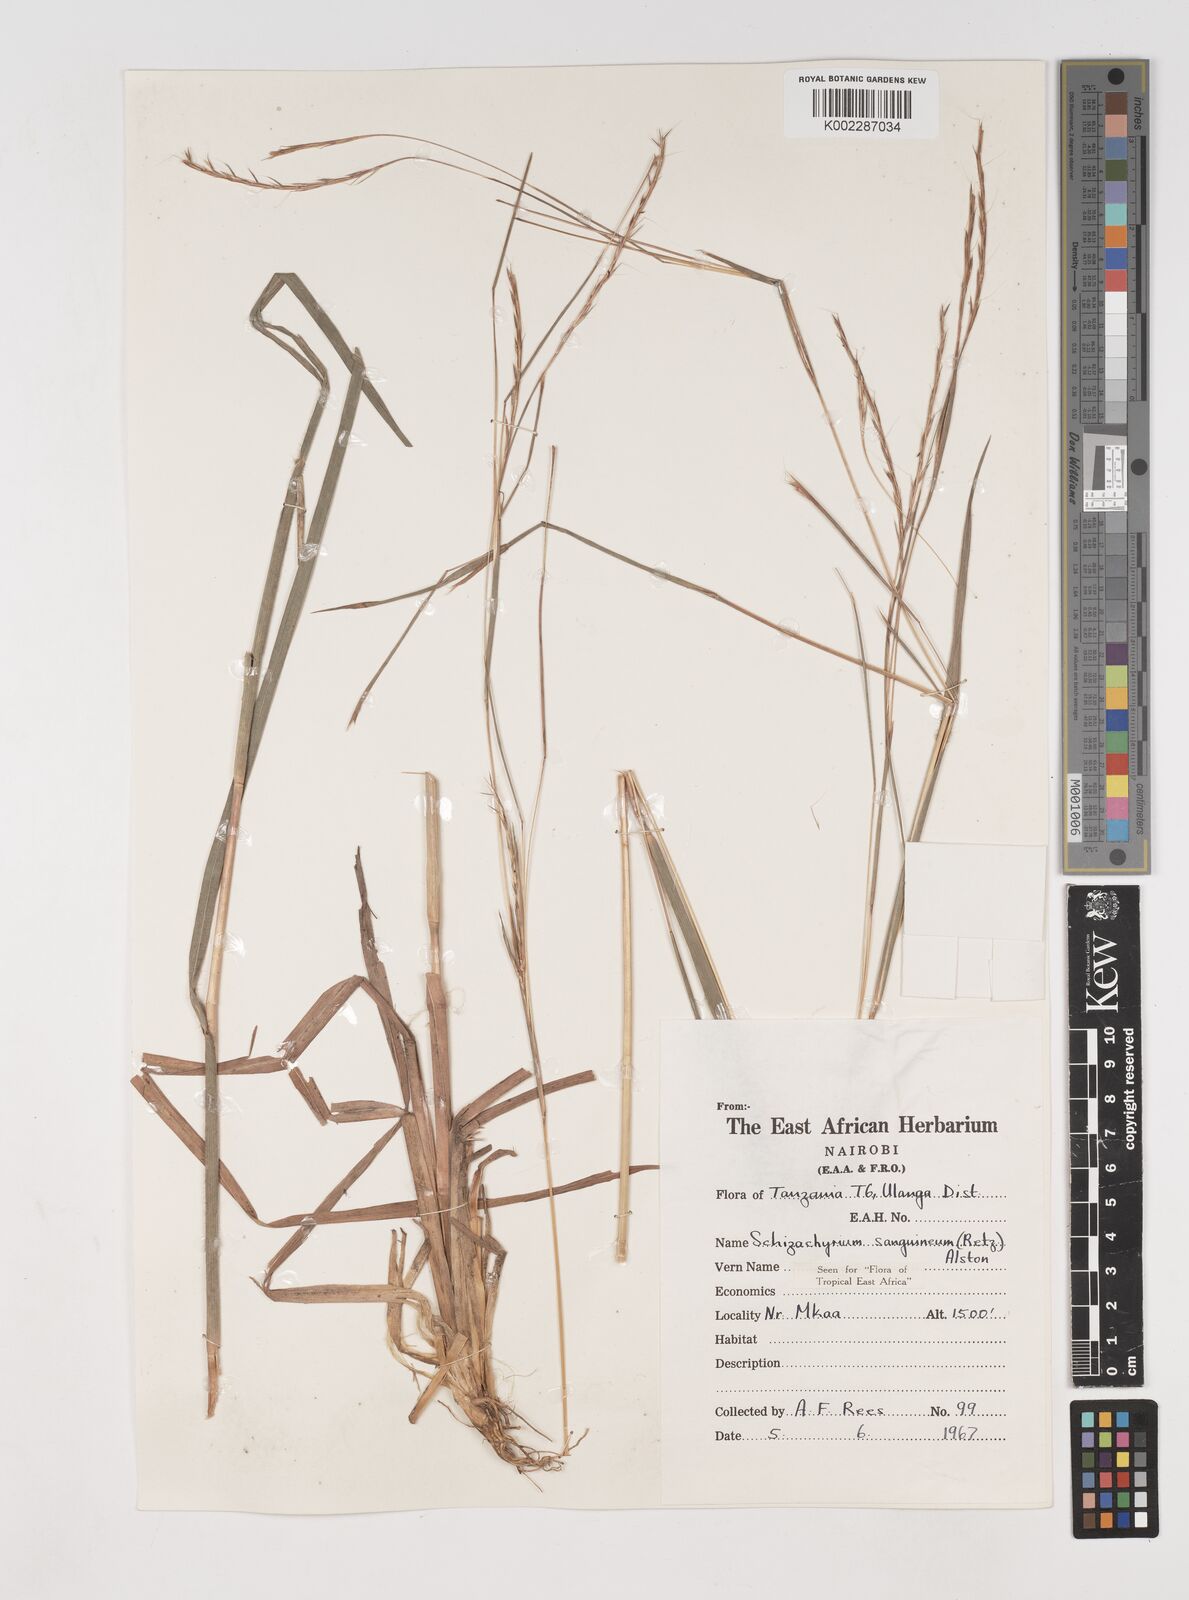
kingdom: Plantae
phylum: Tracheophyta
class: Liliopsida
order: Poales
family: Poaceae
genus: Schizachyrium
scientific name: Schizachyrium sanguineum
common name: Crimson bluestem
